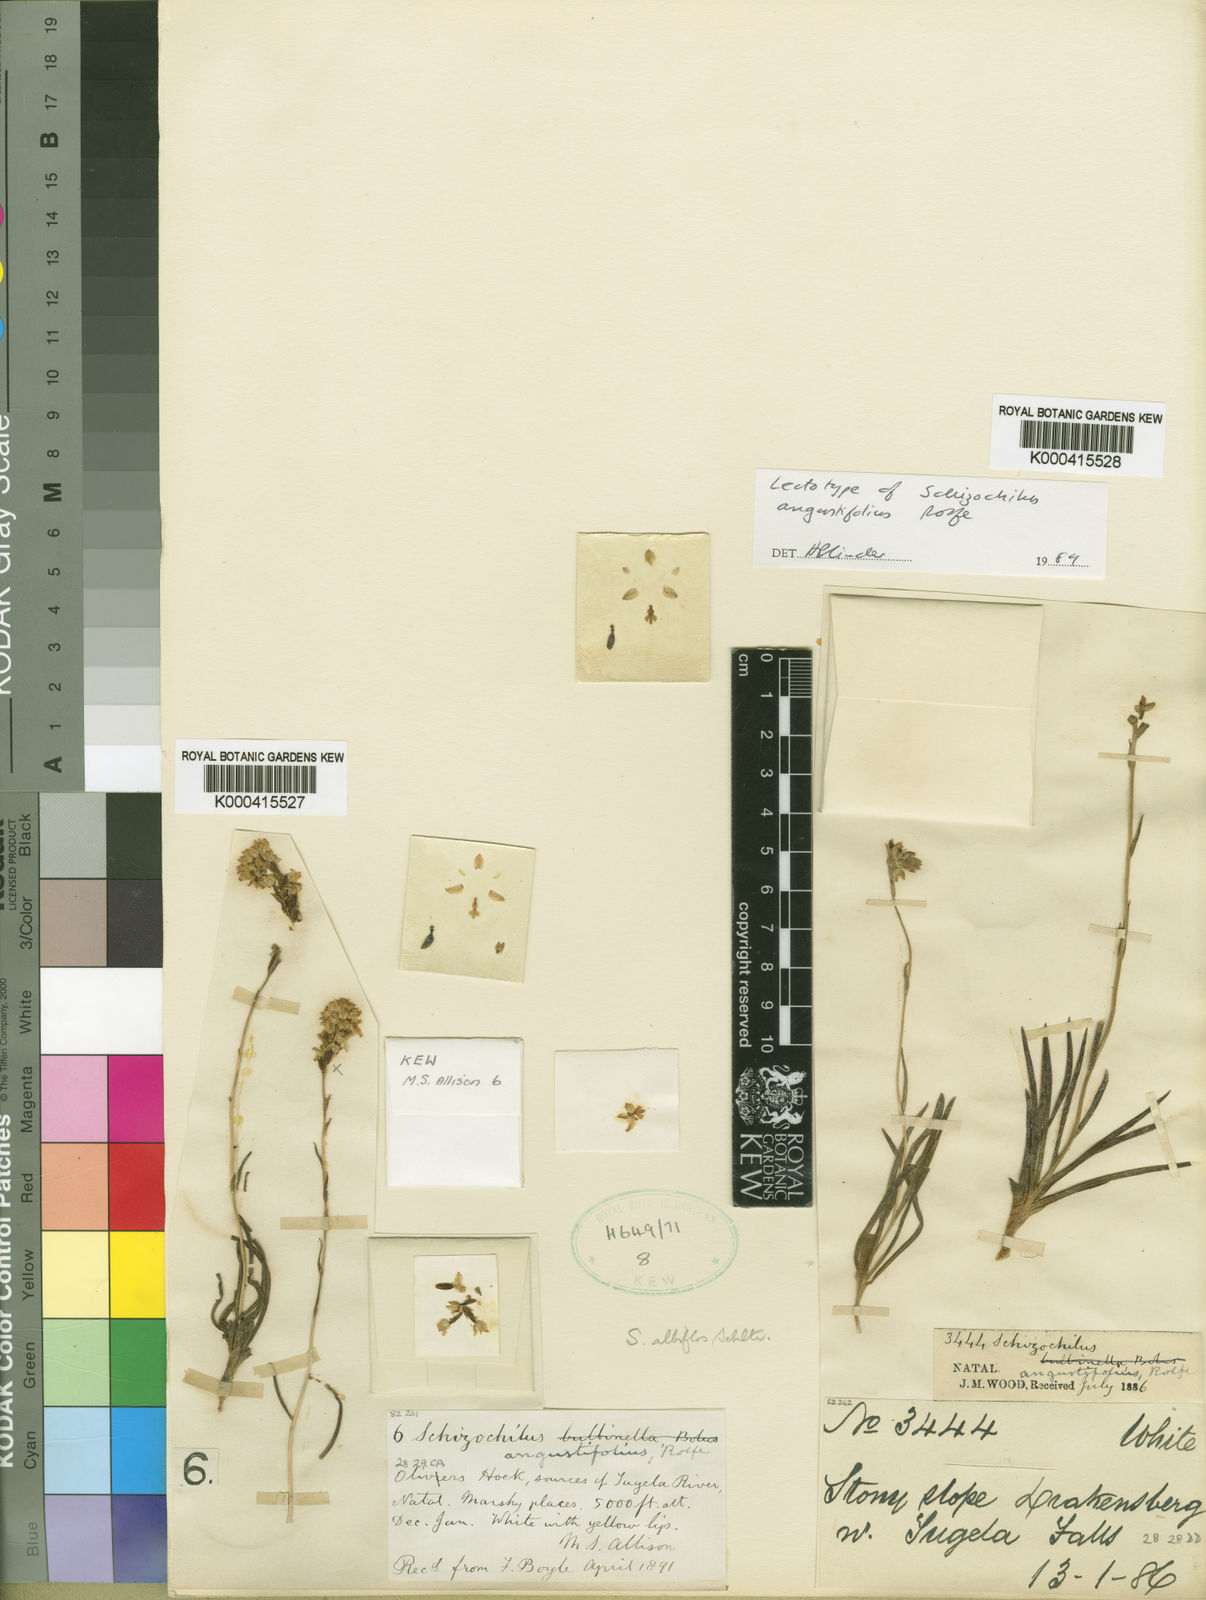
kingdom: Plantae
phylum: Tracheophyta
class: Liliopsida
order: Asparagales
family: Orchidaceae
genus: Schizochilus
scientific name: Schizochilus angustifolius
